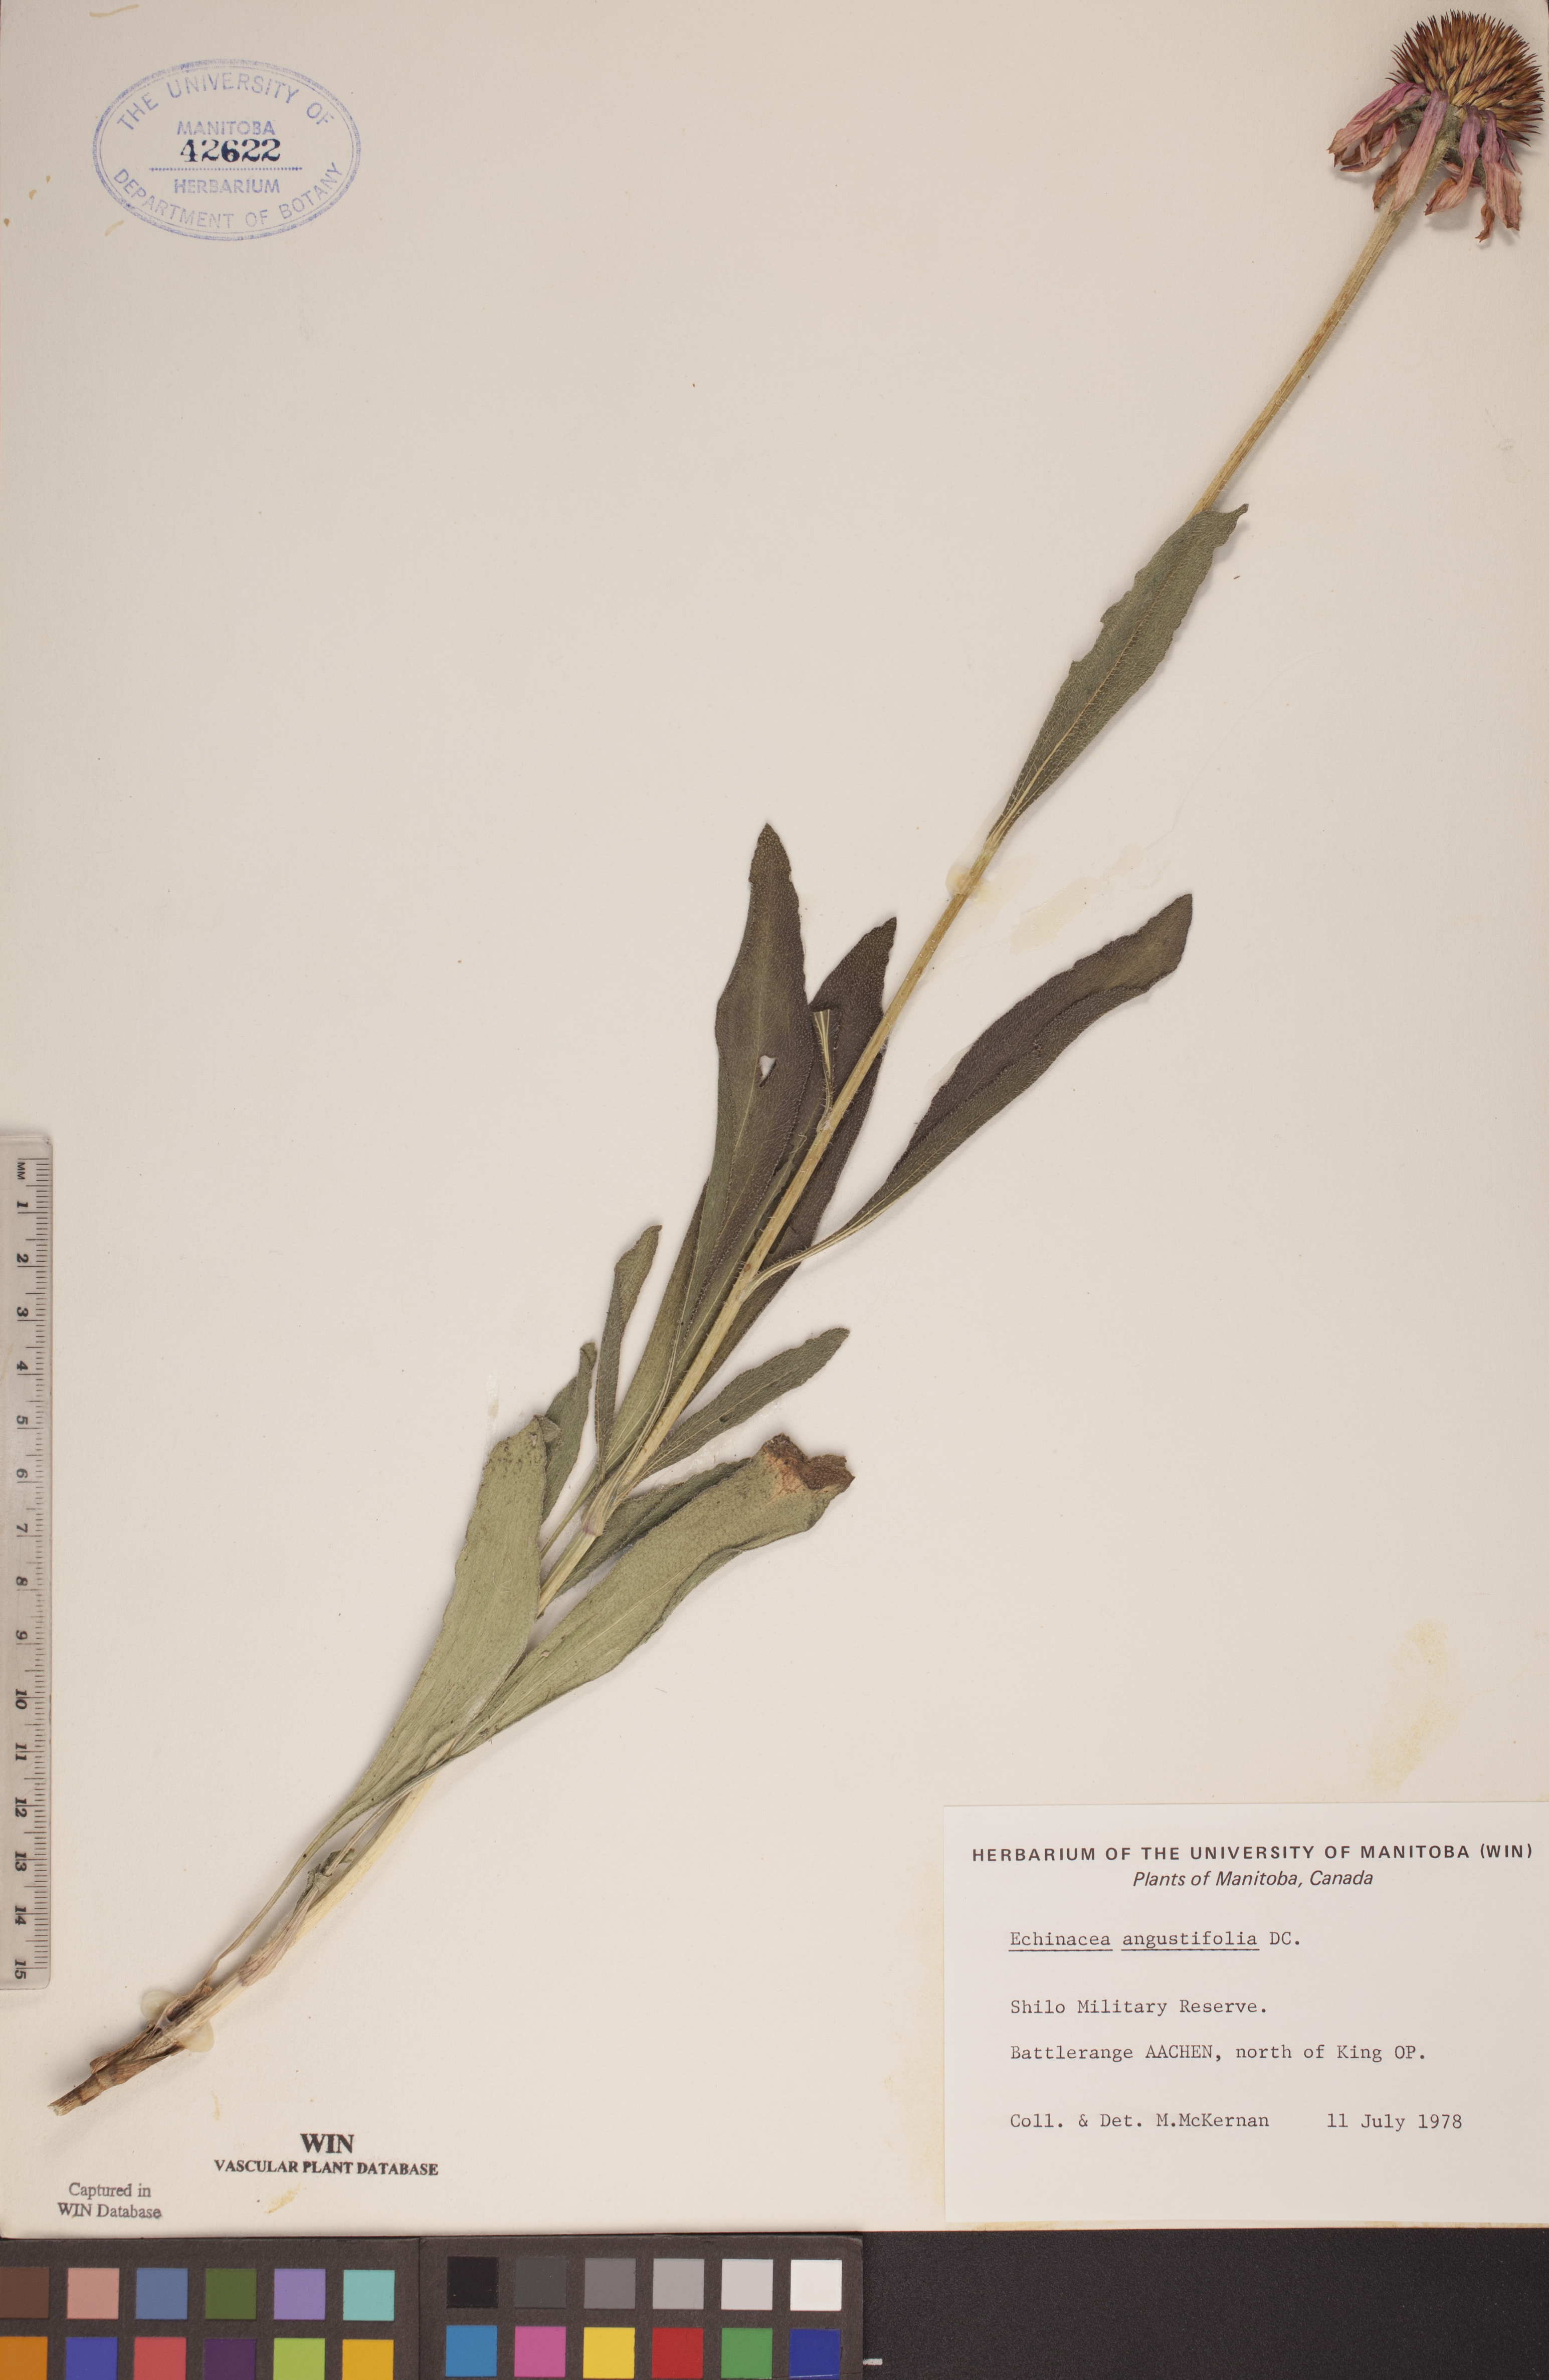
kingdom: Plantae
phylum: Tracheophyta
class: Magnoliopsida
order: Asterales
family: Asteraceae
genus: Echinacea
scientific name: Echinacea angustifolia
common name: Black-sampson echinacea
